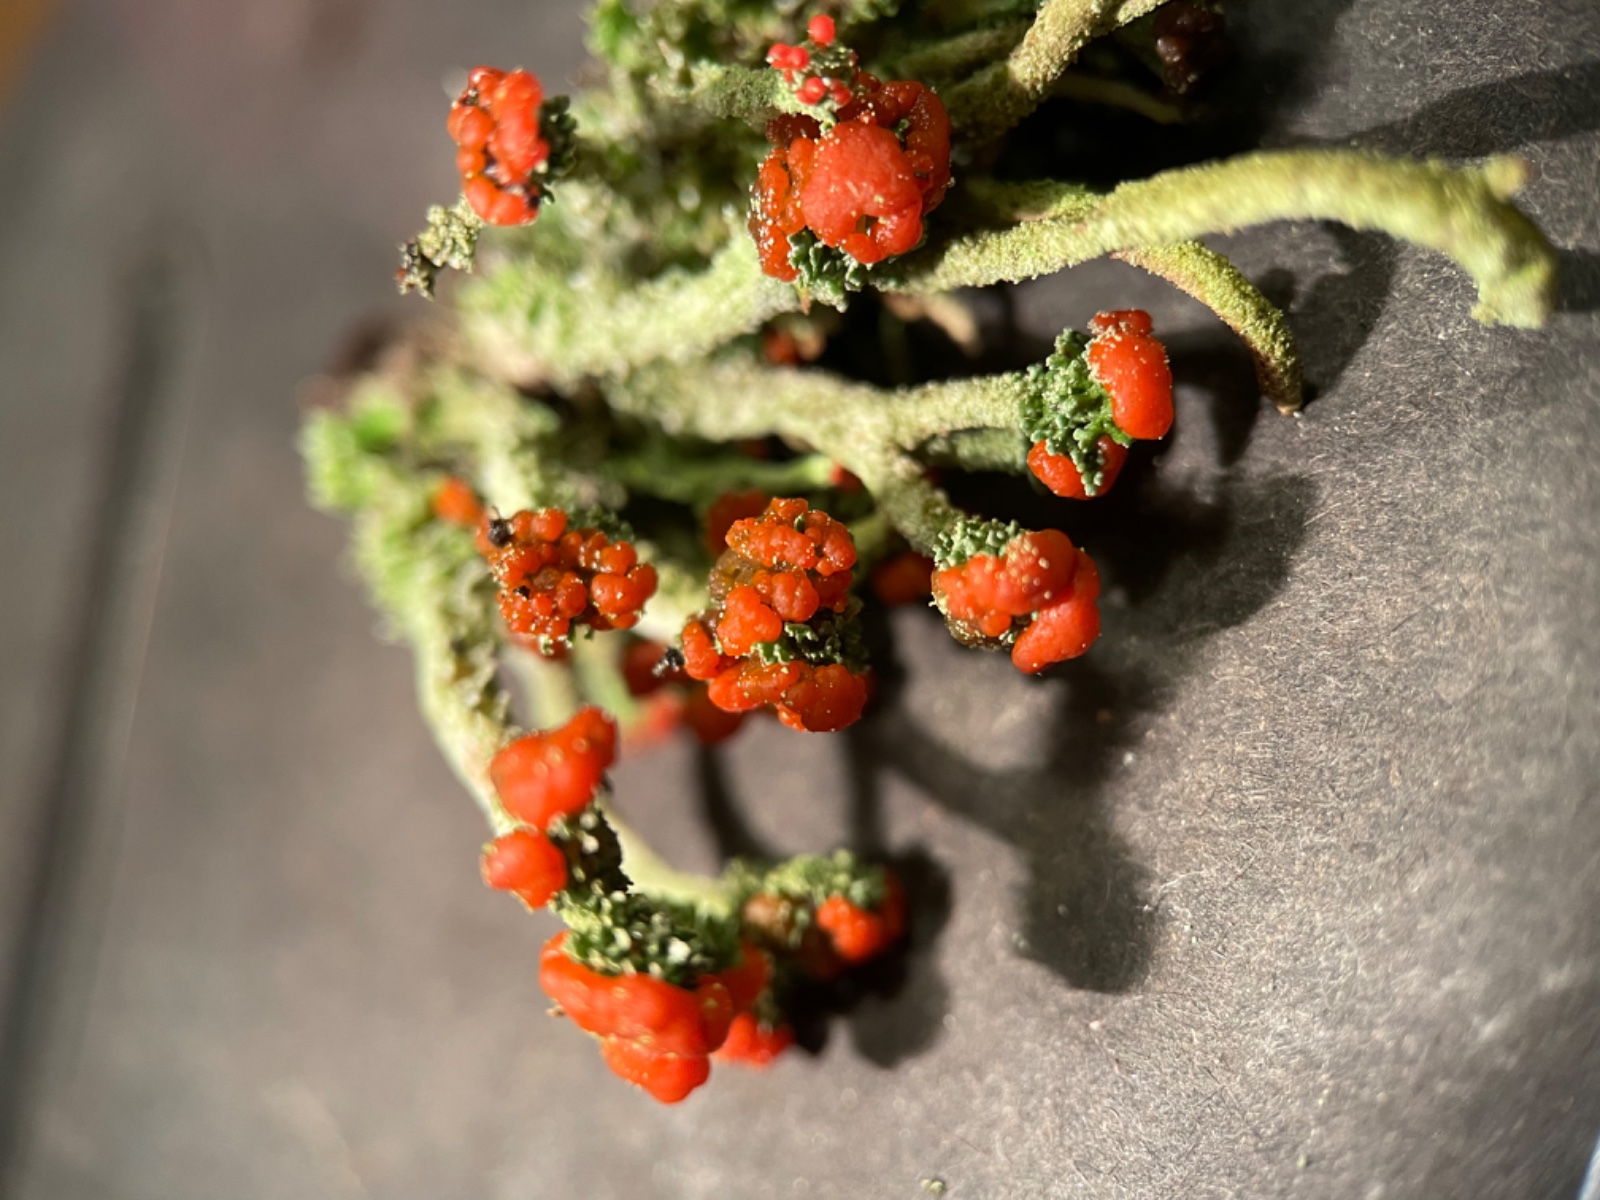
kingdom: Fungi
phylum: Ascomycota
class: Lecanoromycetes
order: Lecanorales
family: Cladoniaceae
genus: Cladonia
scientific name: Cladonia floerkeana
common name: lakrød bægerlav
